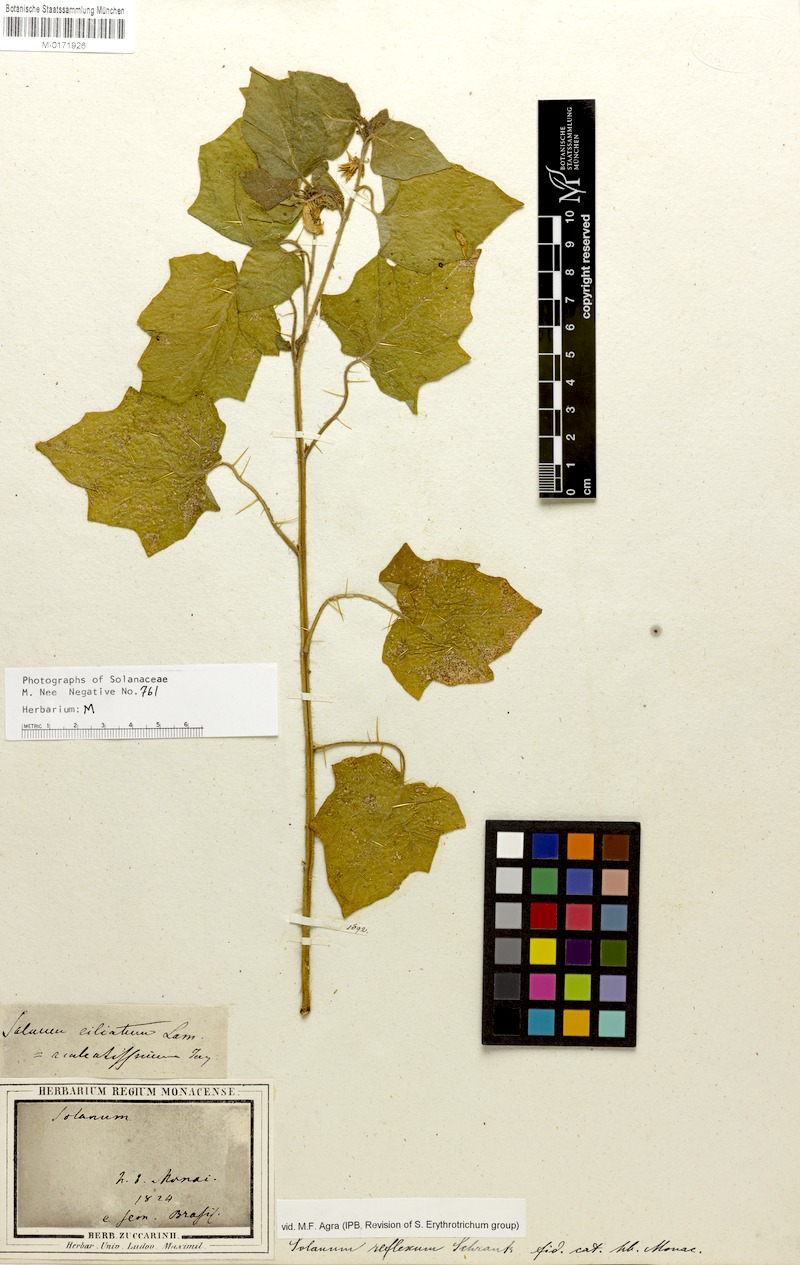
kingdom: Plantae
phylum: Tracheophyta
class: Magnoliopsida
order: Solanales
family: Solanaceae
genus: Solanum
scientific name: Solanum aculeatissimum
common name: Dutch eggplant
